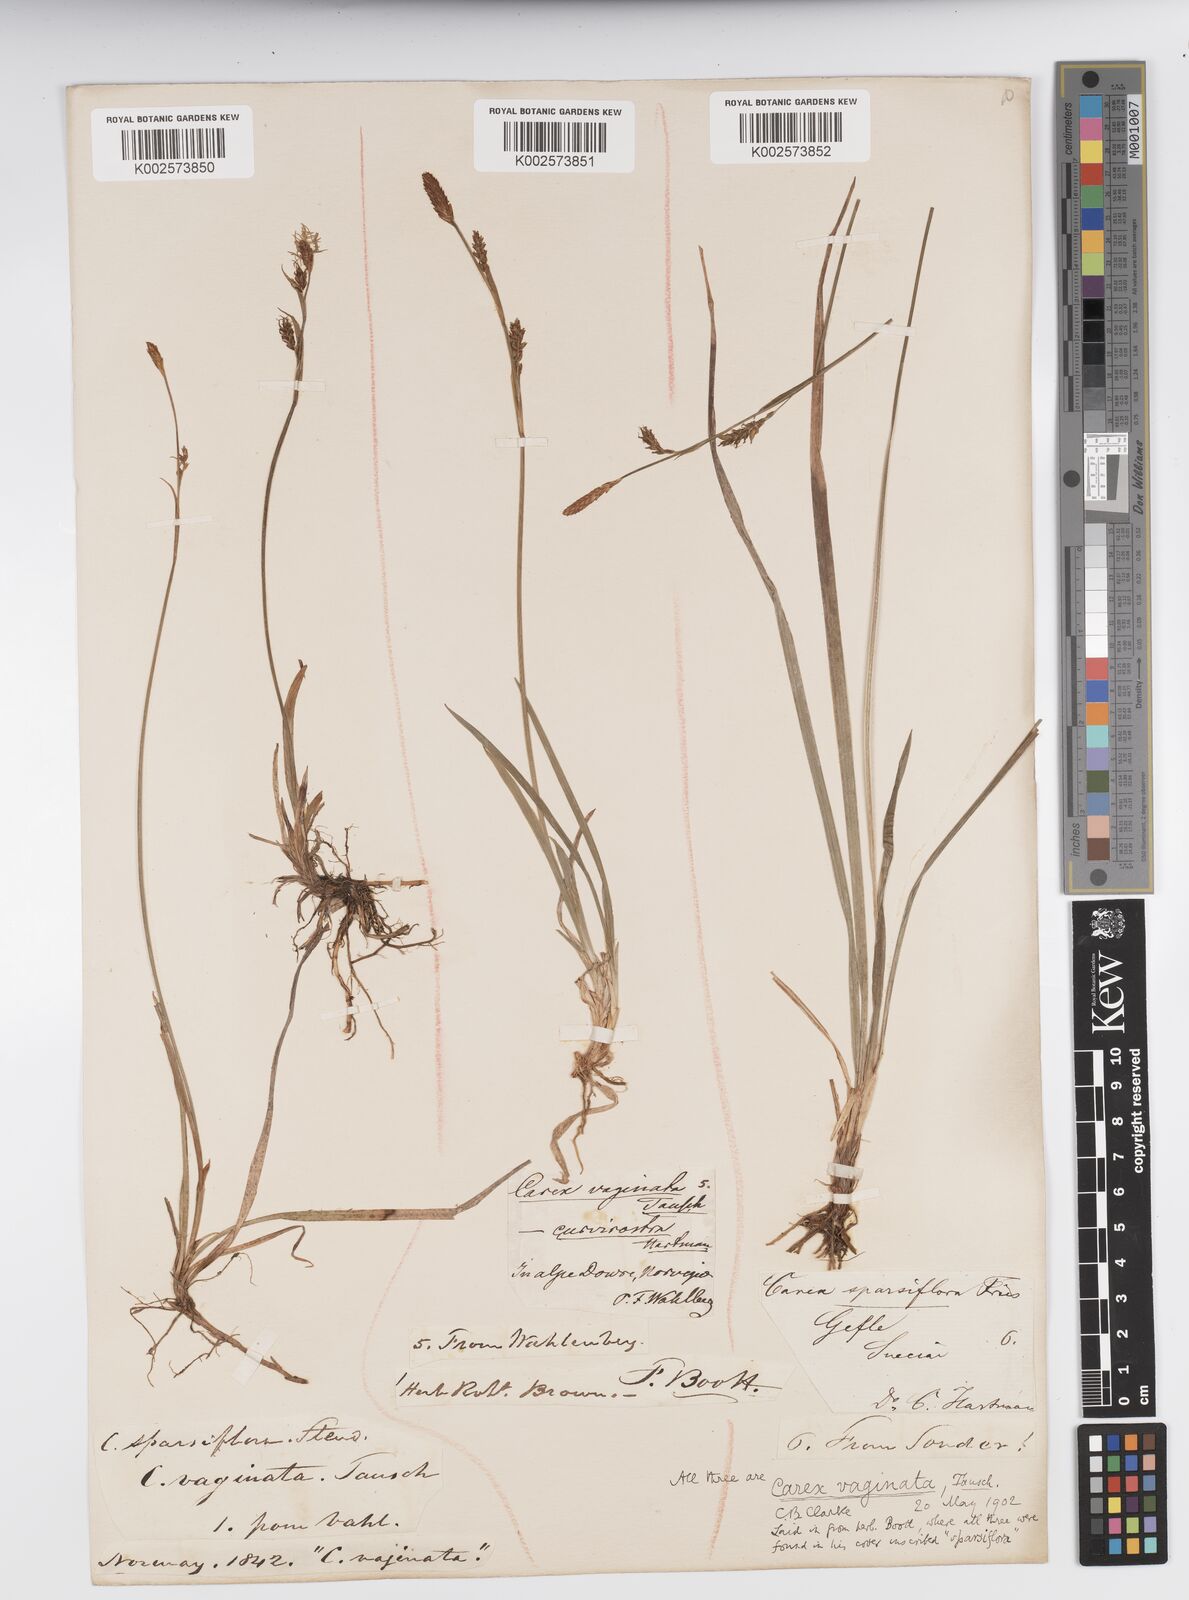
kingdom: Plantae
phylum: Tracheophyta
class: Liliopsida
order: Poales
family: Cyperaceae
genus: Carex
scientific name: Carex vaginata
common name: Sheathed sedge
